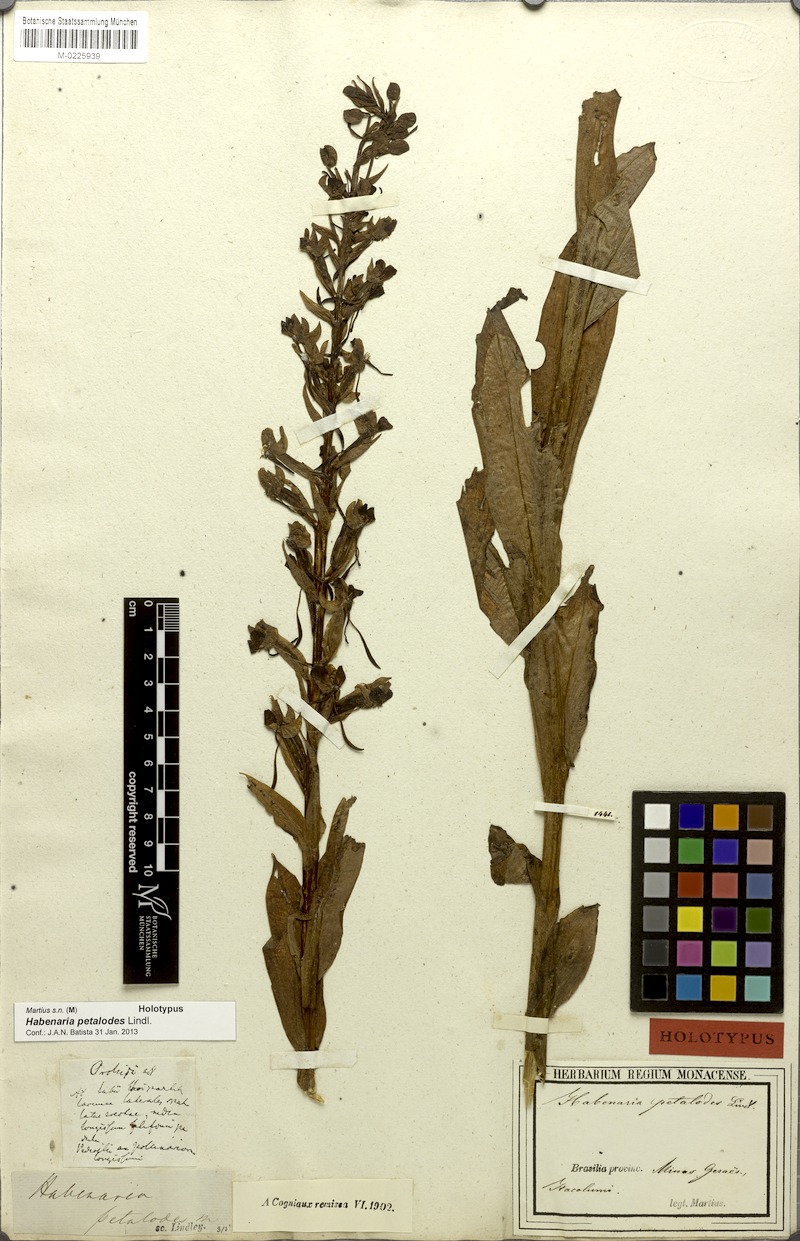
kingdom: Plantae
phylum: Tracheophyta
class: Liliopsida
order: Asparagales
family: Orchidaceae
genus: Habenaria
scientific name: Habenaria petalodes
